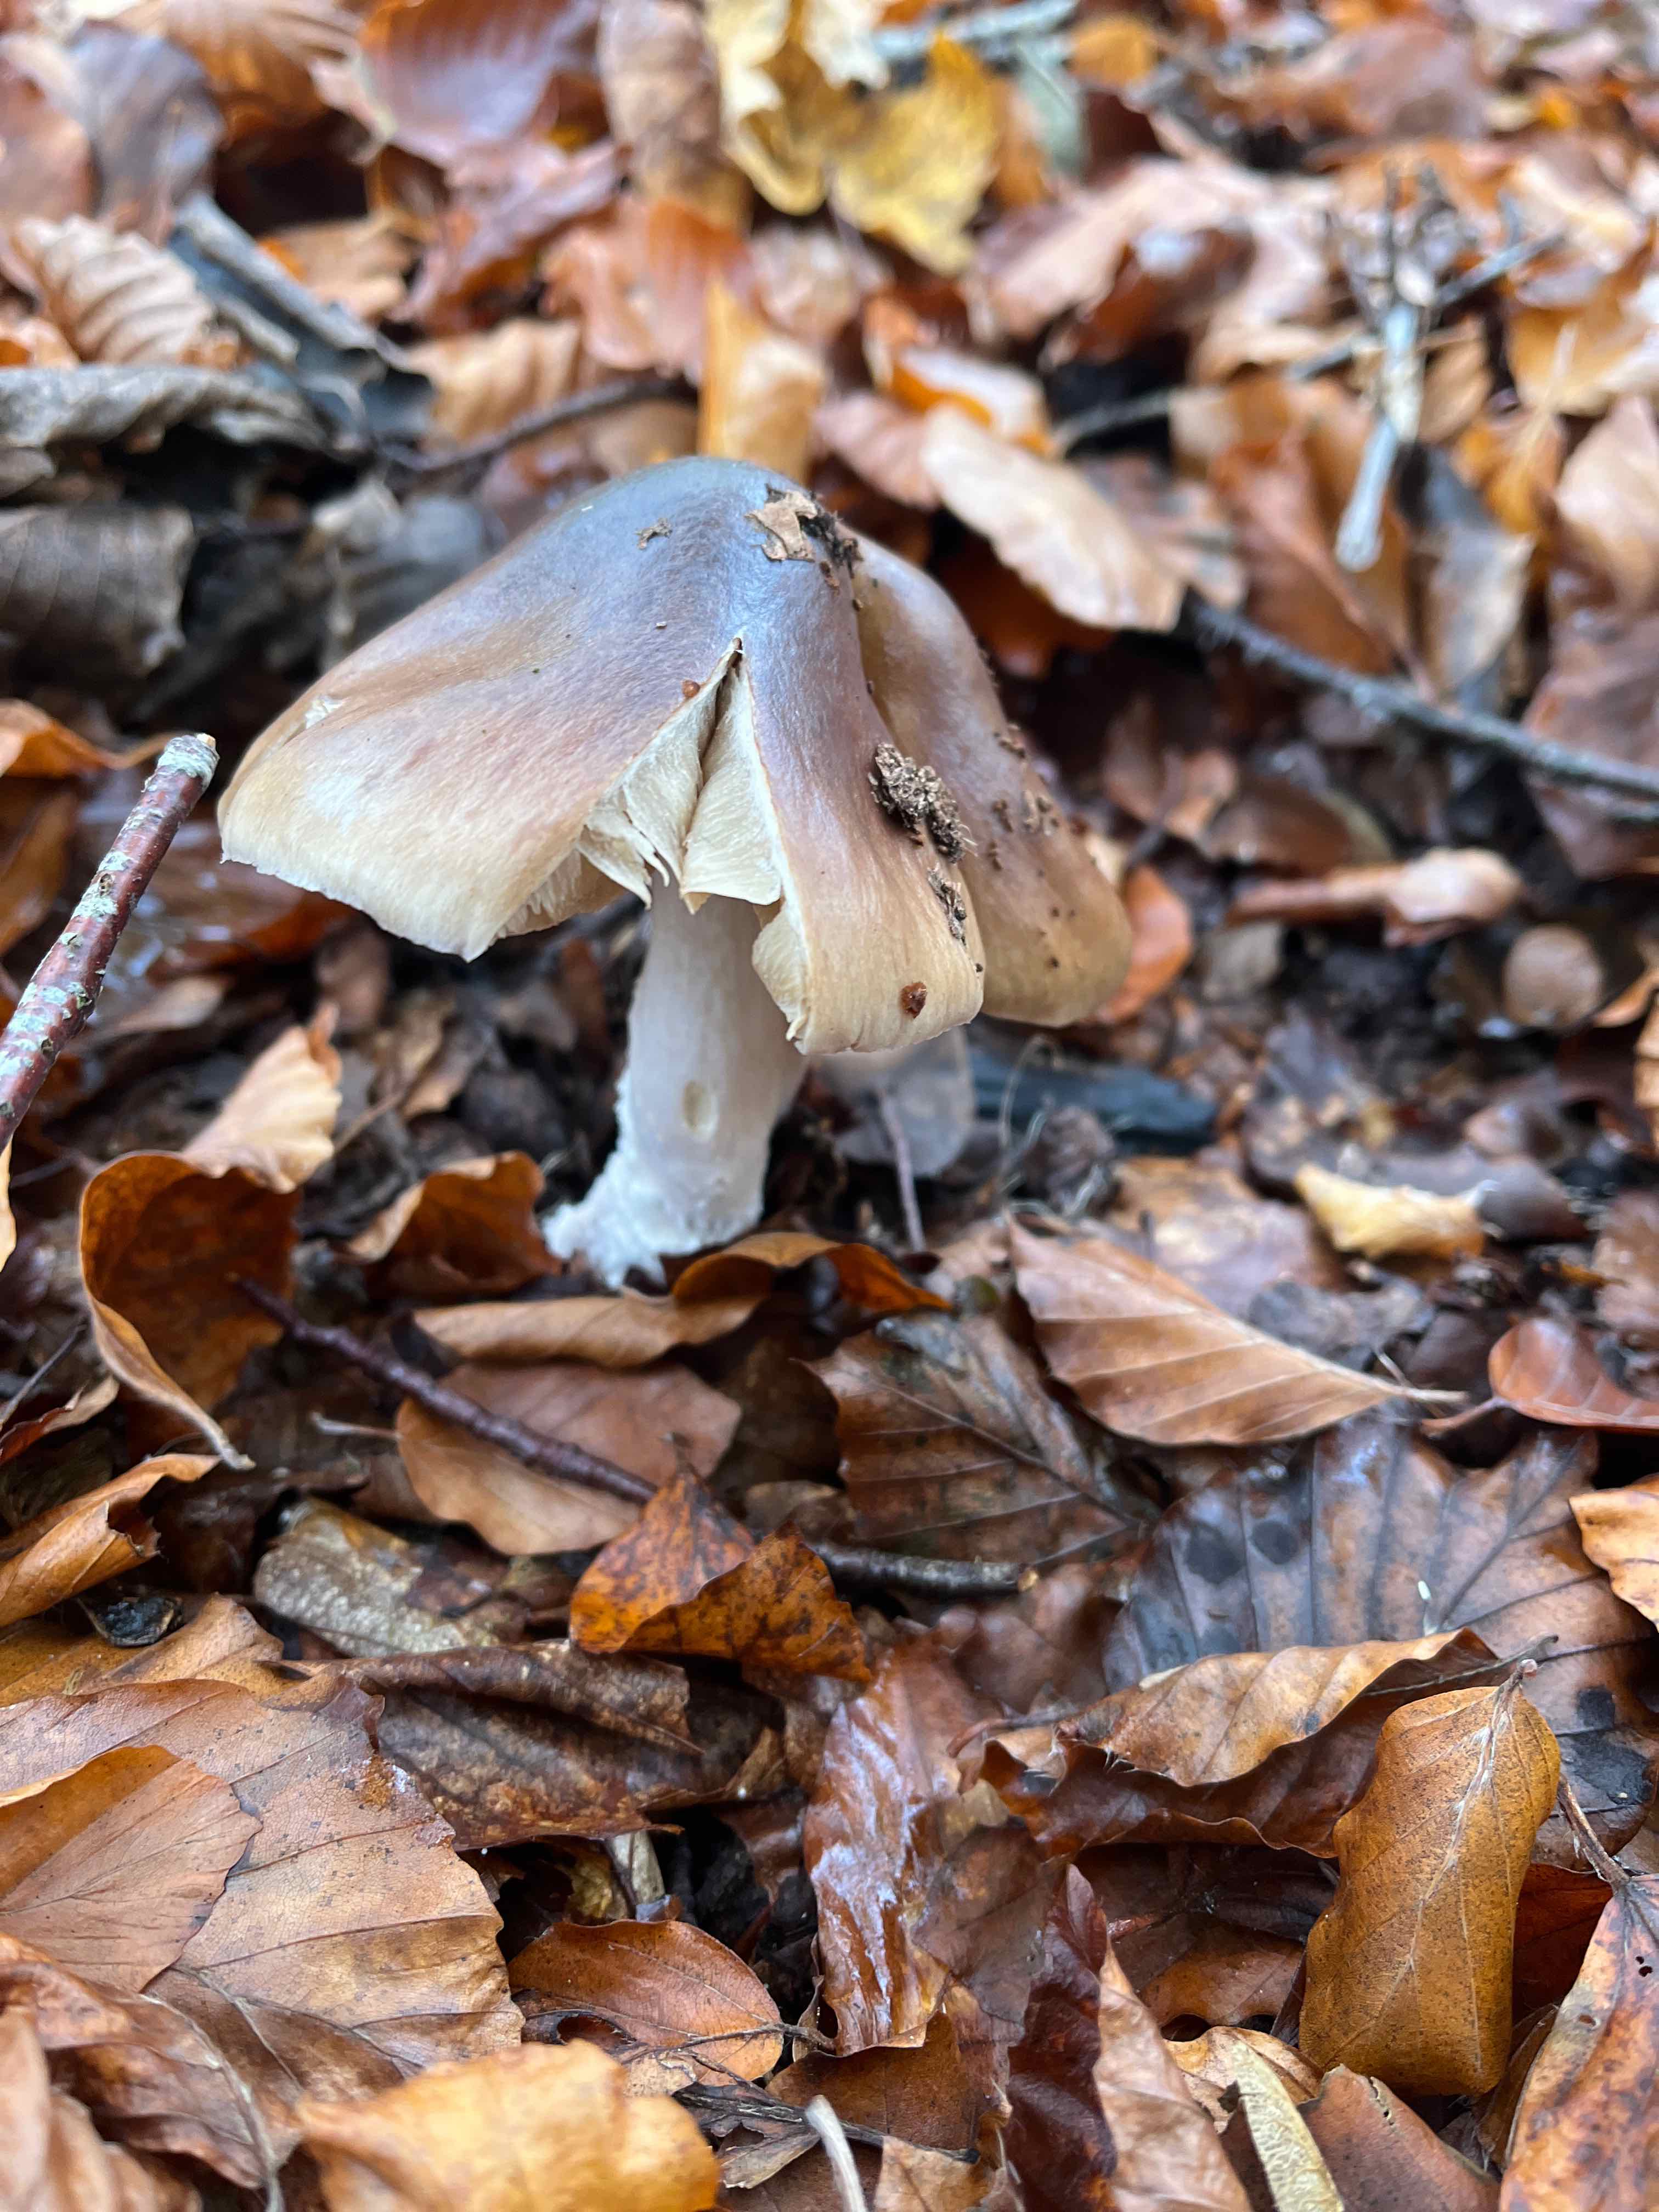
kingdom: Fungi
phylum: Basidiomycota
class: Agaricomycetes
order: Agaricales
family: Cortinariaceae
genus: Cortinarius
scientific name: Cortinarius elatior
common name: høj slørhat
